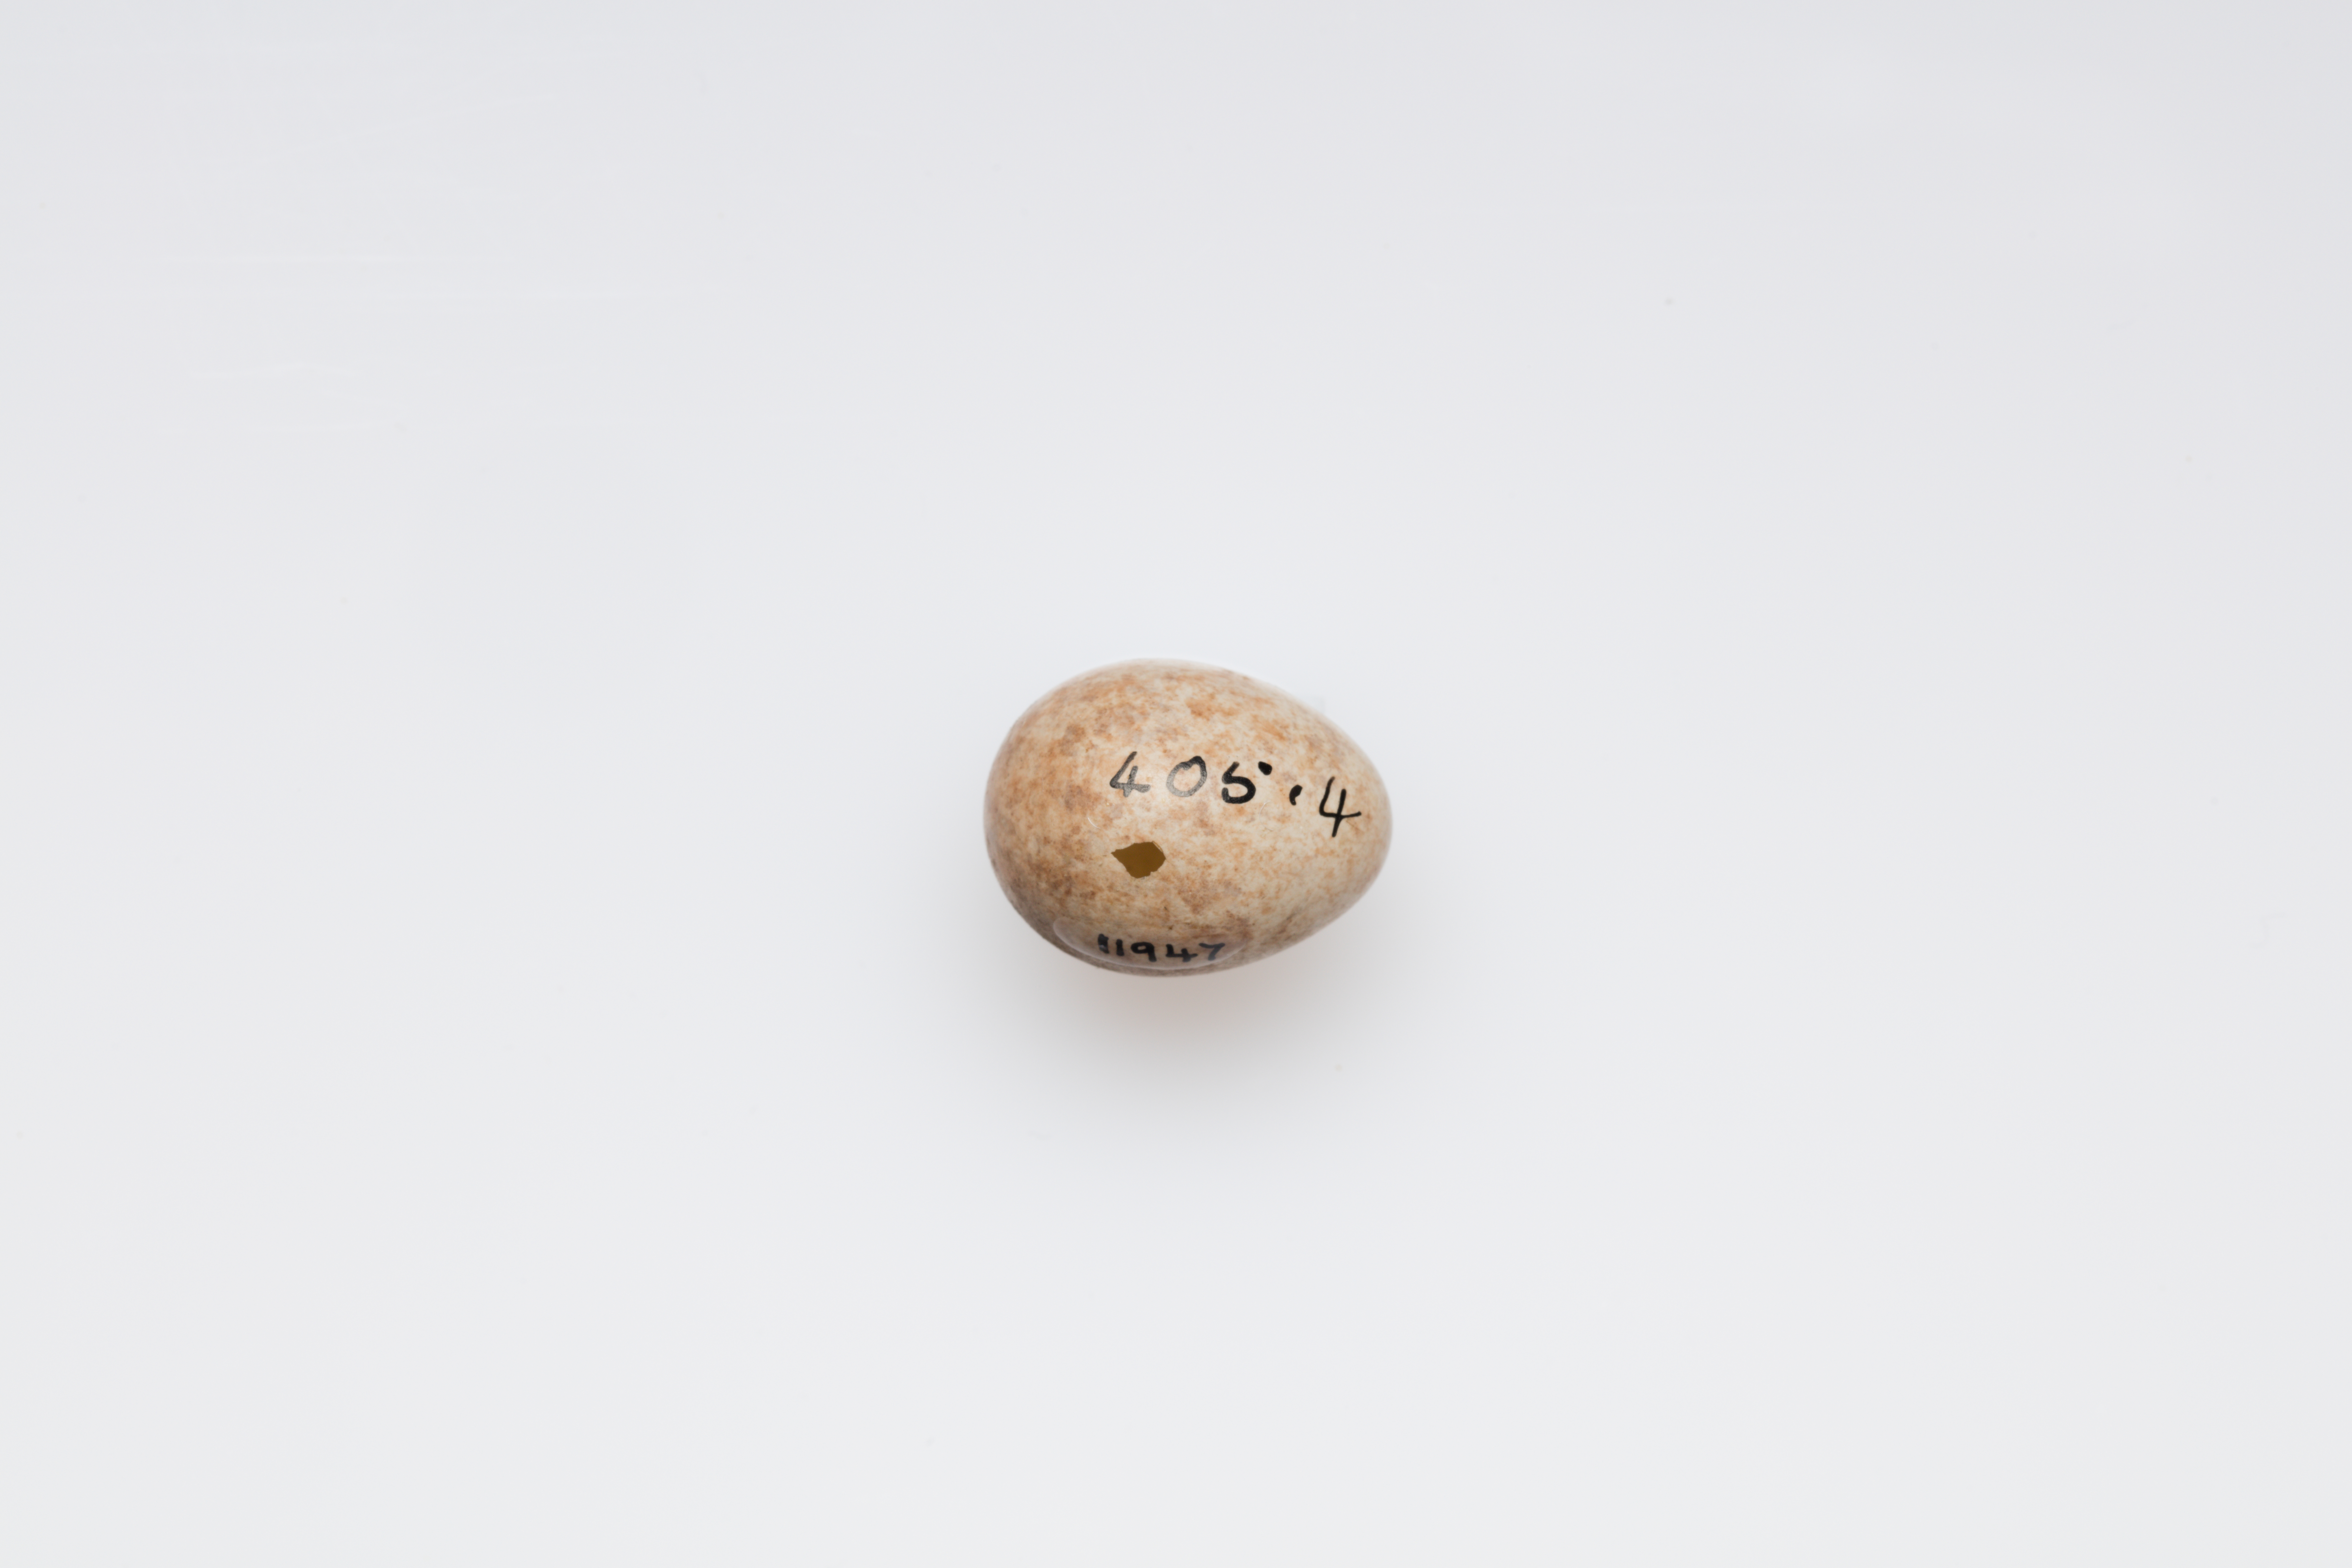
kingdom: Animalia
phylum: Chordata
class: Aves
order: Passeriformes
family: Muscicapidae
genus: Muscicapa
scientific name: Muscicapa striata
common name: Spotted flycatcher
